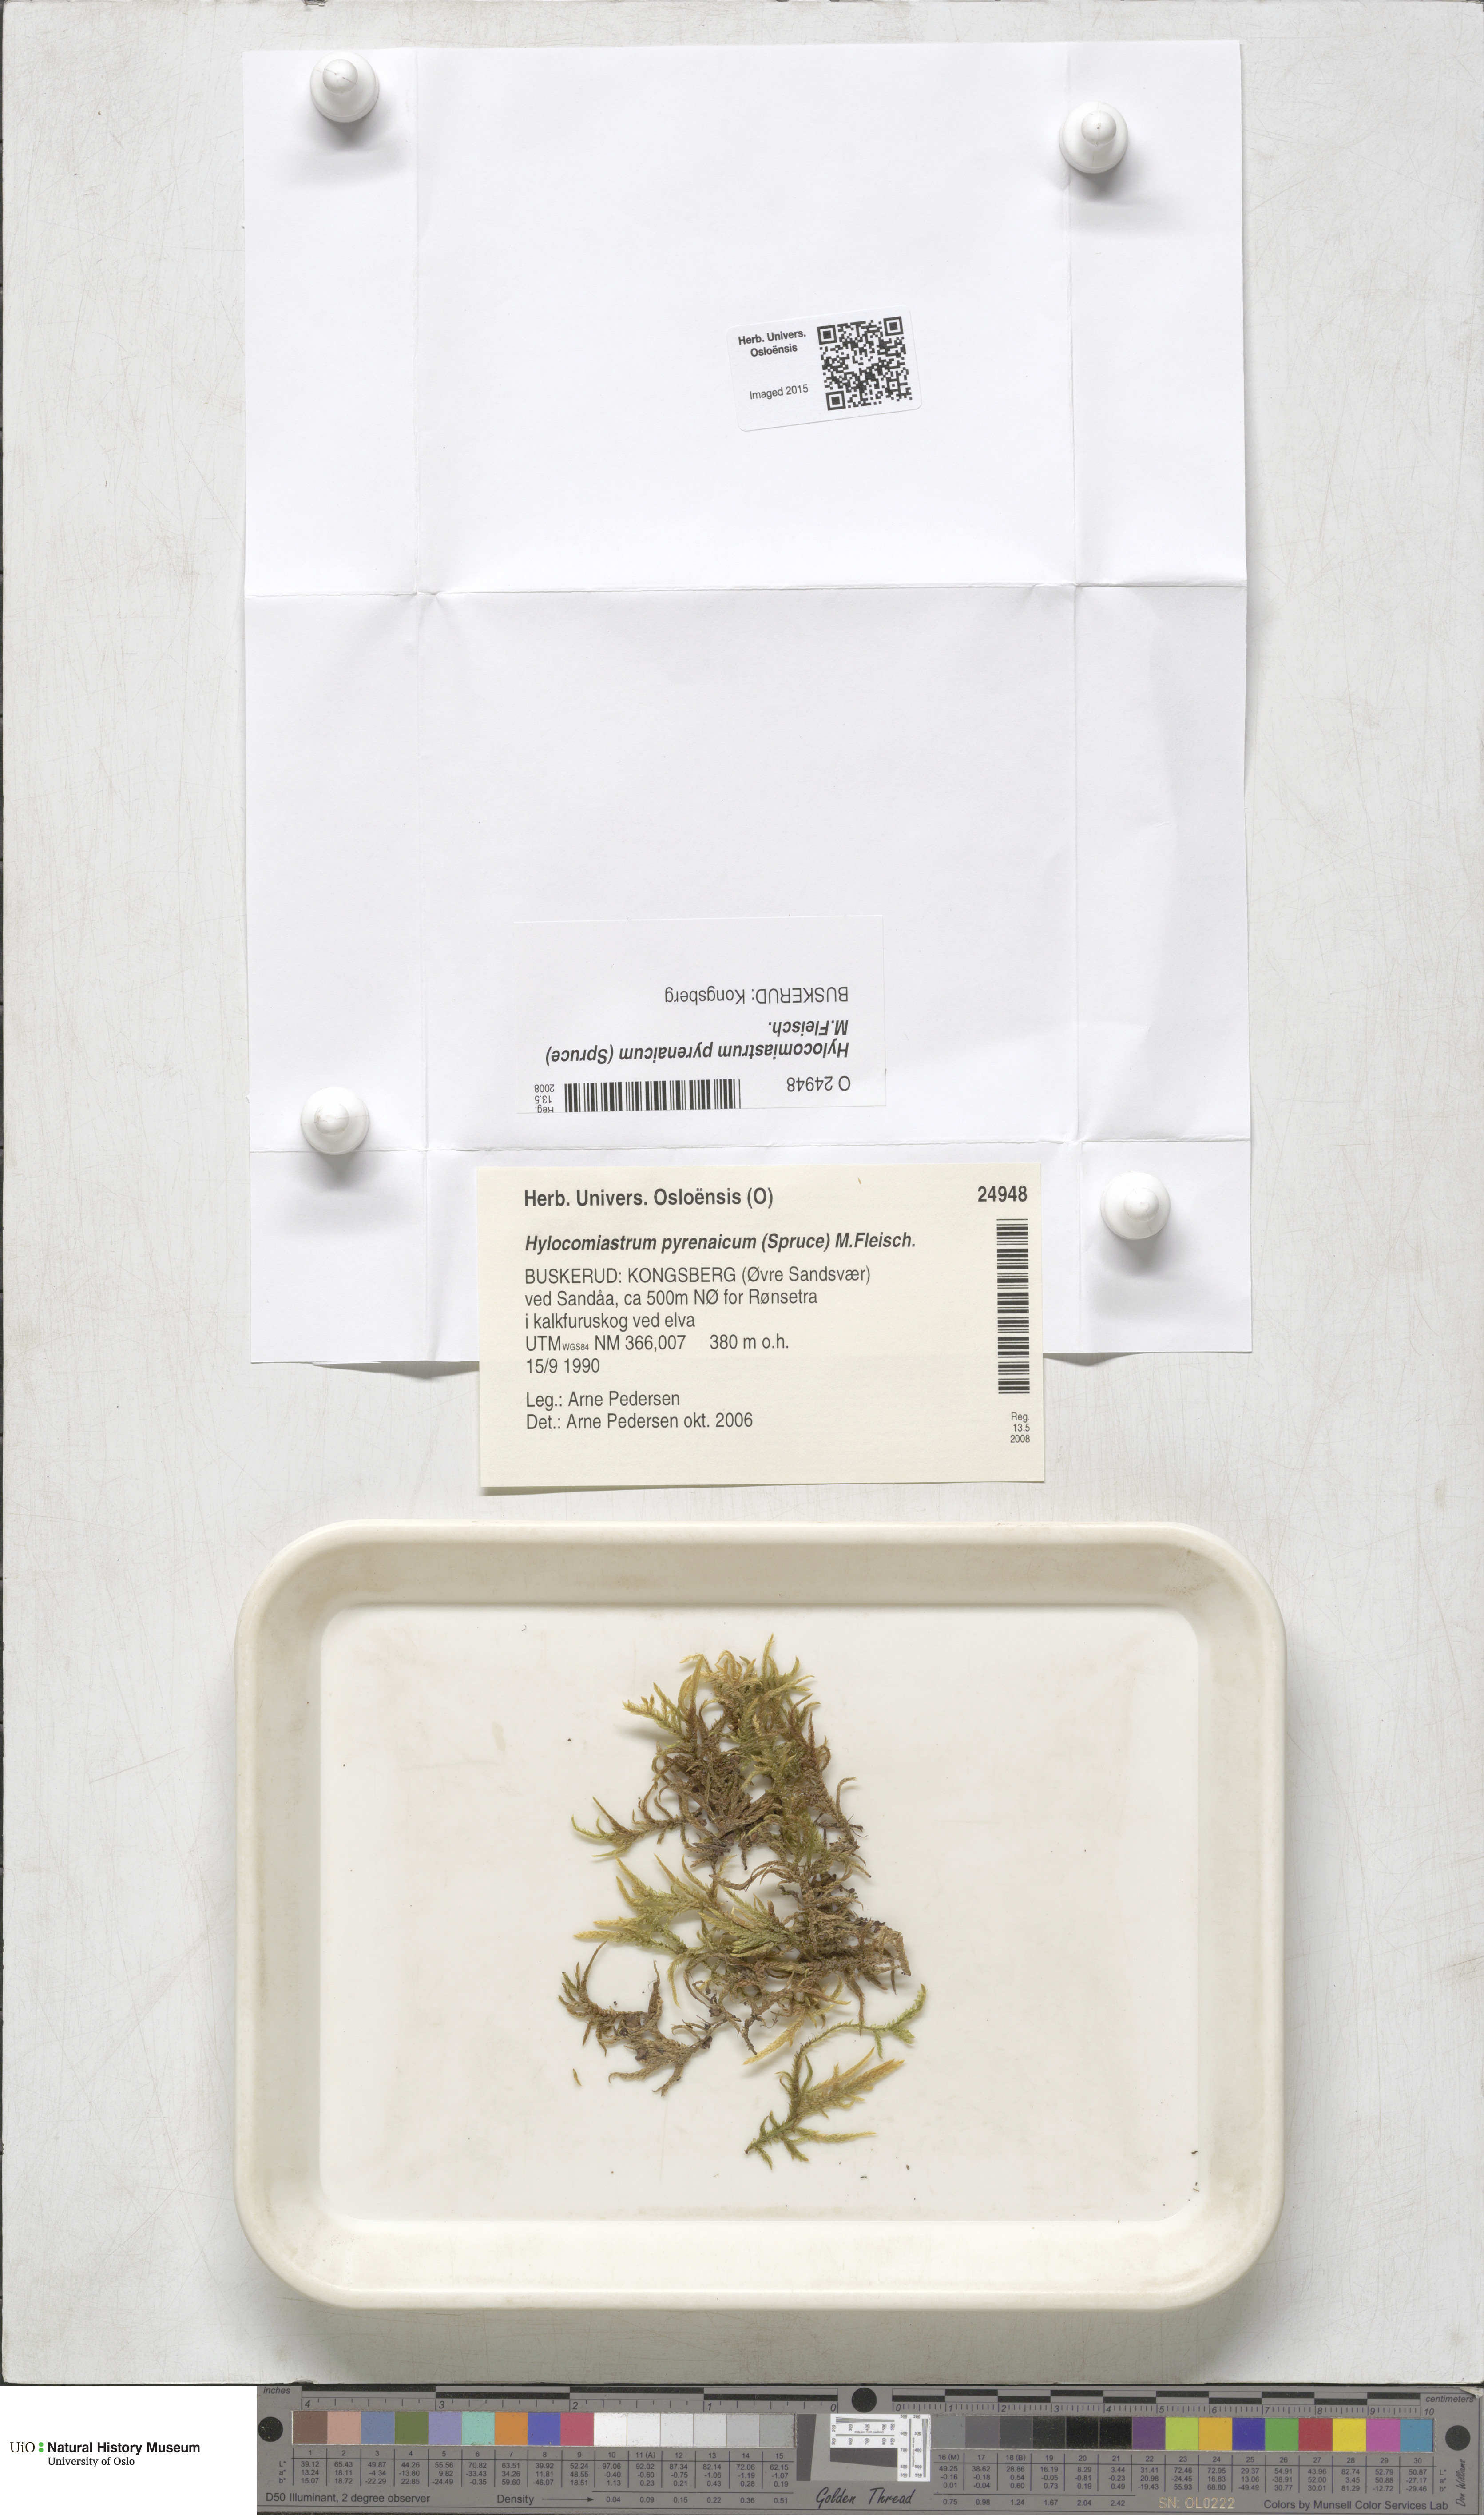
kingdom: Plantae
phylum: Bryophyta
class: Bryopsida
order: Hypnales
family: Hylocomiaceae
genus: Hylocomiastrum
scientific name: Hylocomiastrum pyrenaicum
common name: Oake s wood moss
